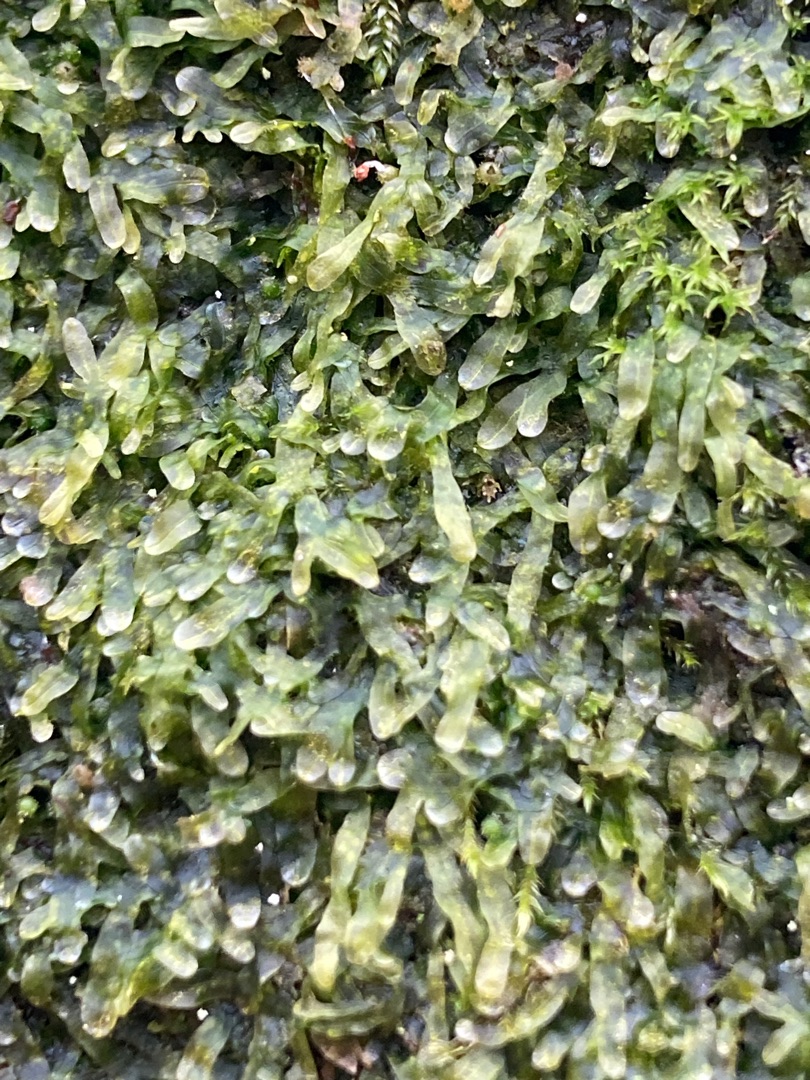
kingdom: Plantae
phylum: Marchantiophyta
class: Jungermanniopsida
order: Metzgeriales
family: Metzgeriaceae
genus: Metzgeria
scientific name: Metzgeria furcata
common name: Almindelig gaffelløv
